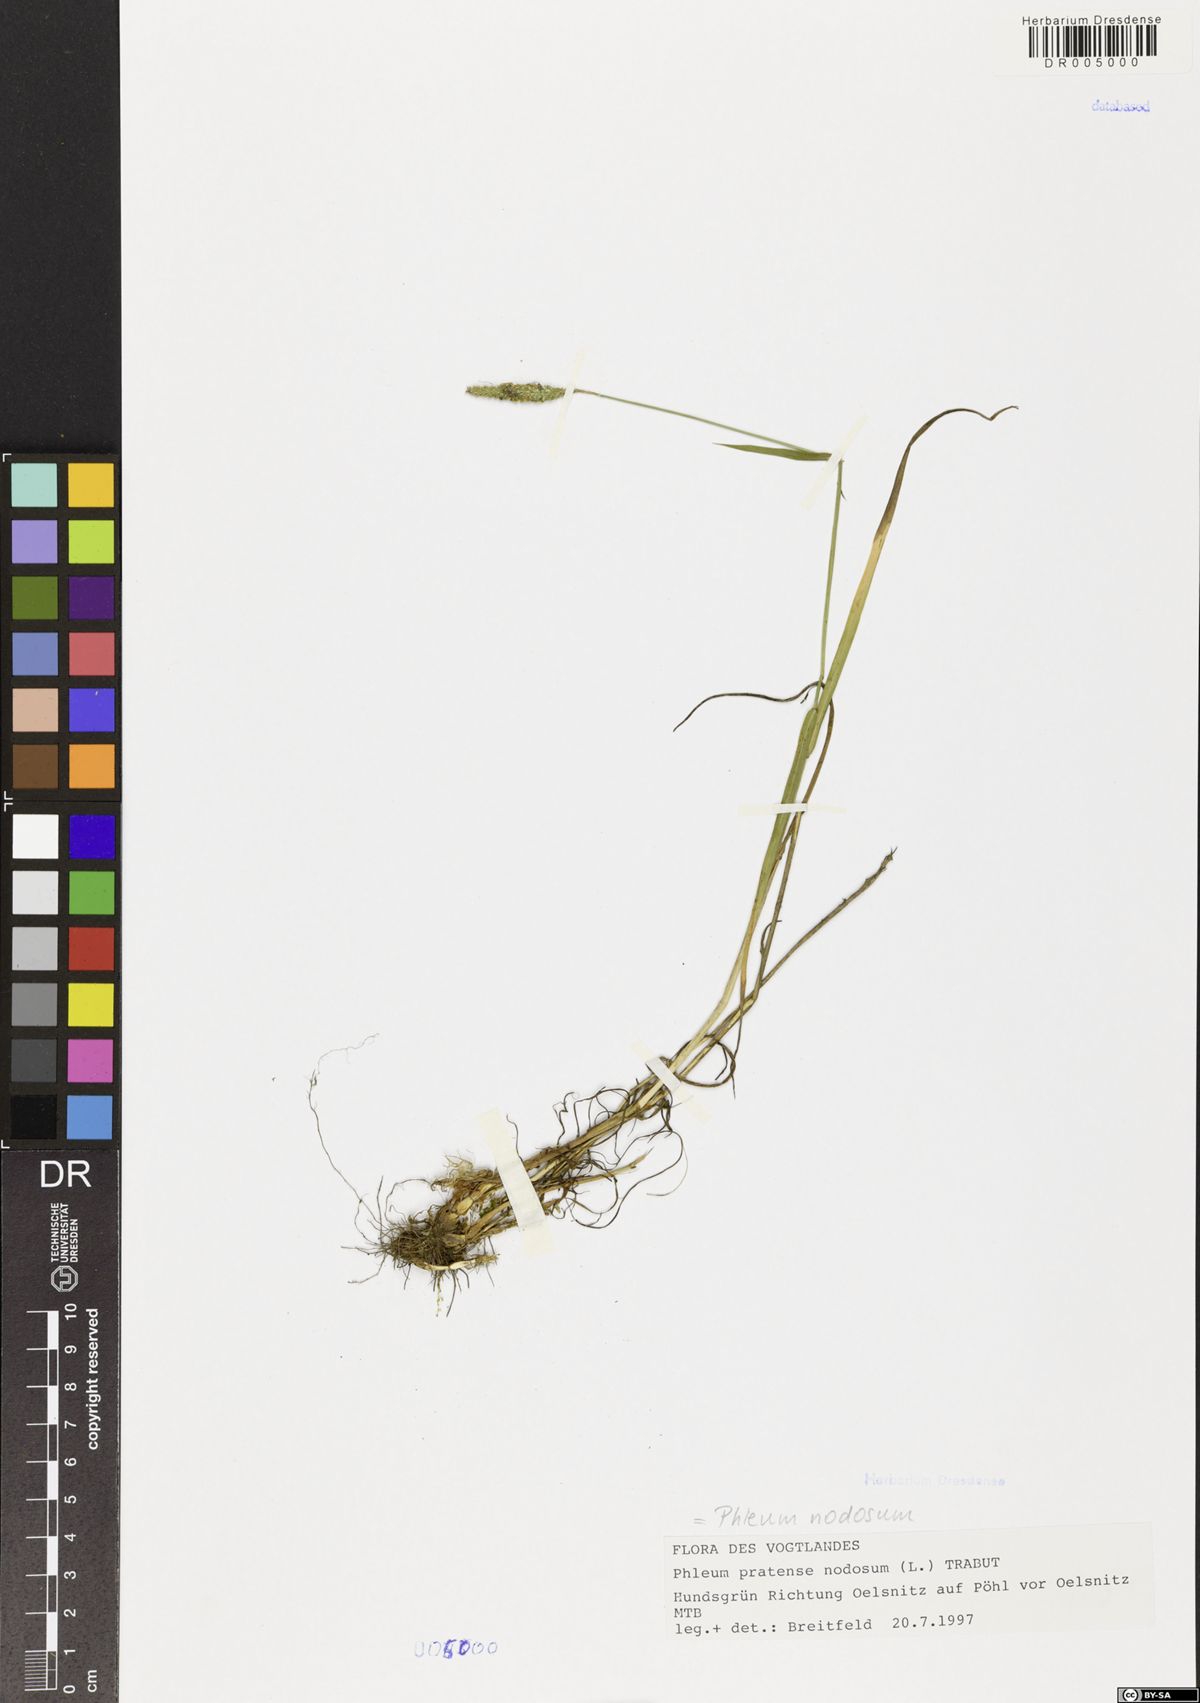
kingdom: Plantae
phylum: Tracheophyta
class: Liliopsida
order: Poales
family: Poaceae
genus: Phleum
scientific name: Phleum pratense
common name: Timothy grass
